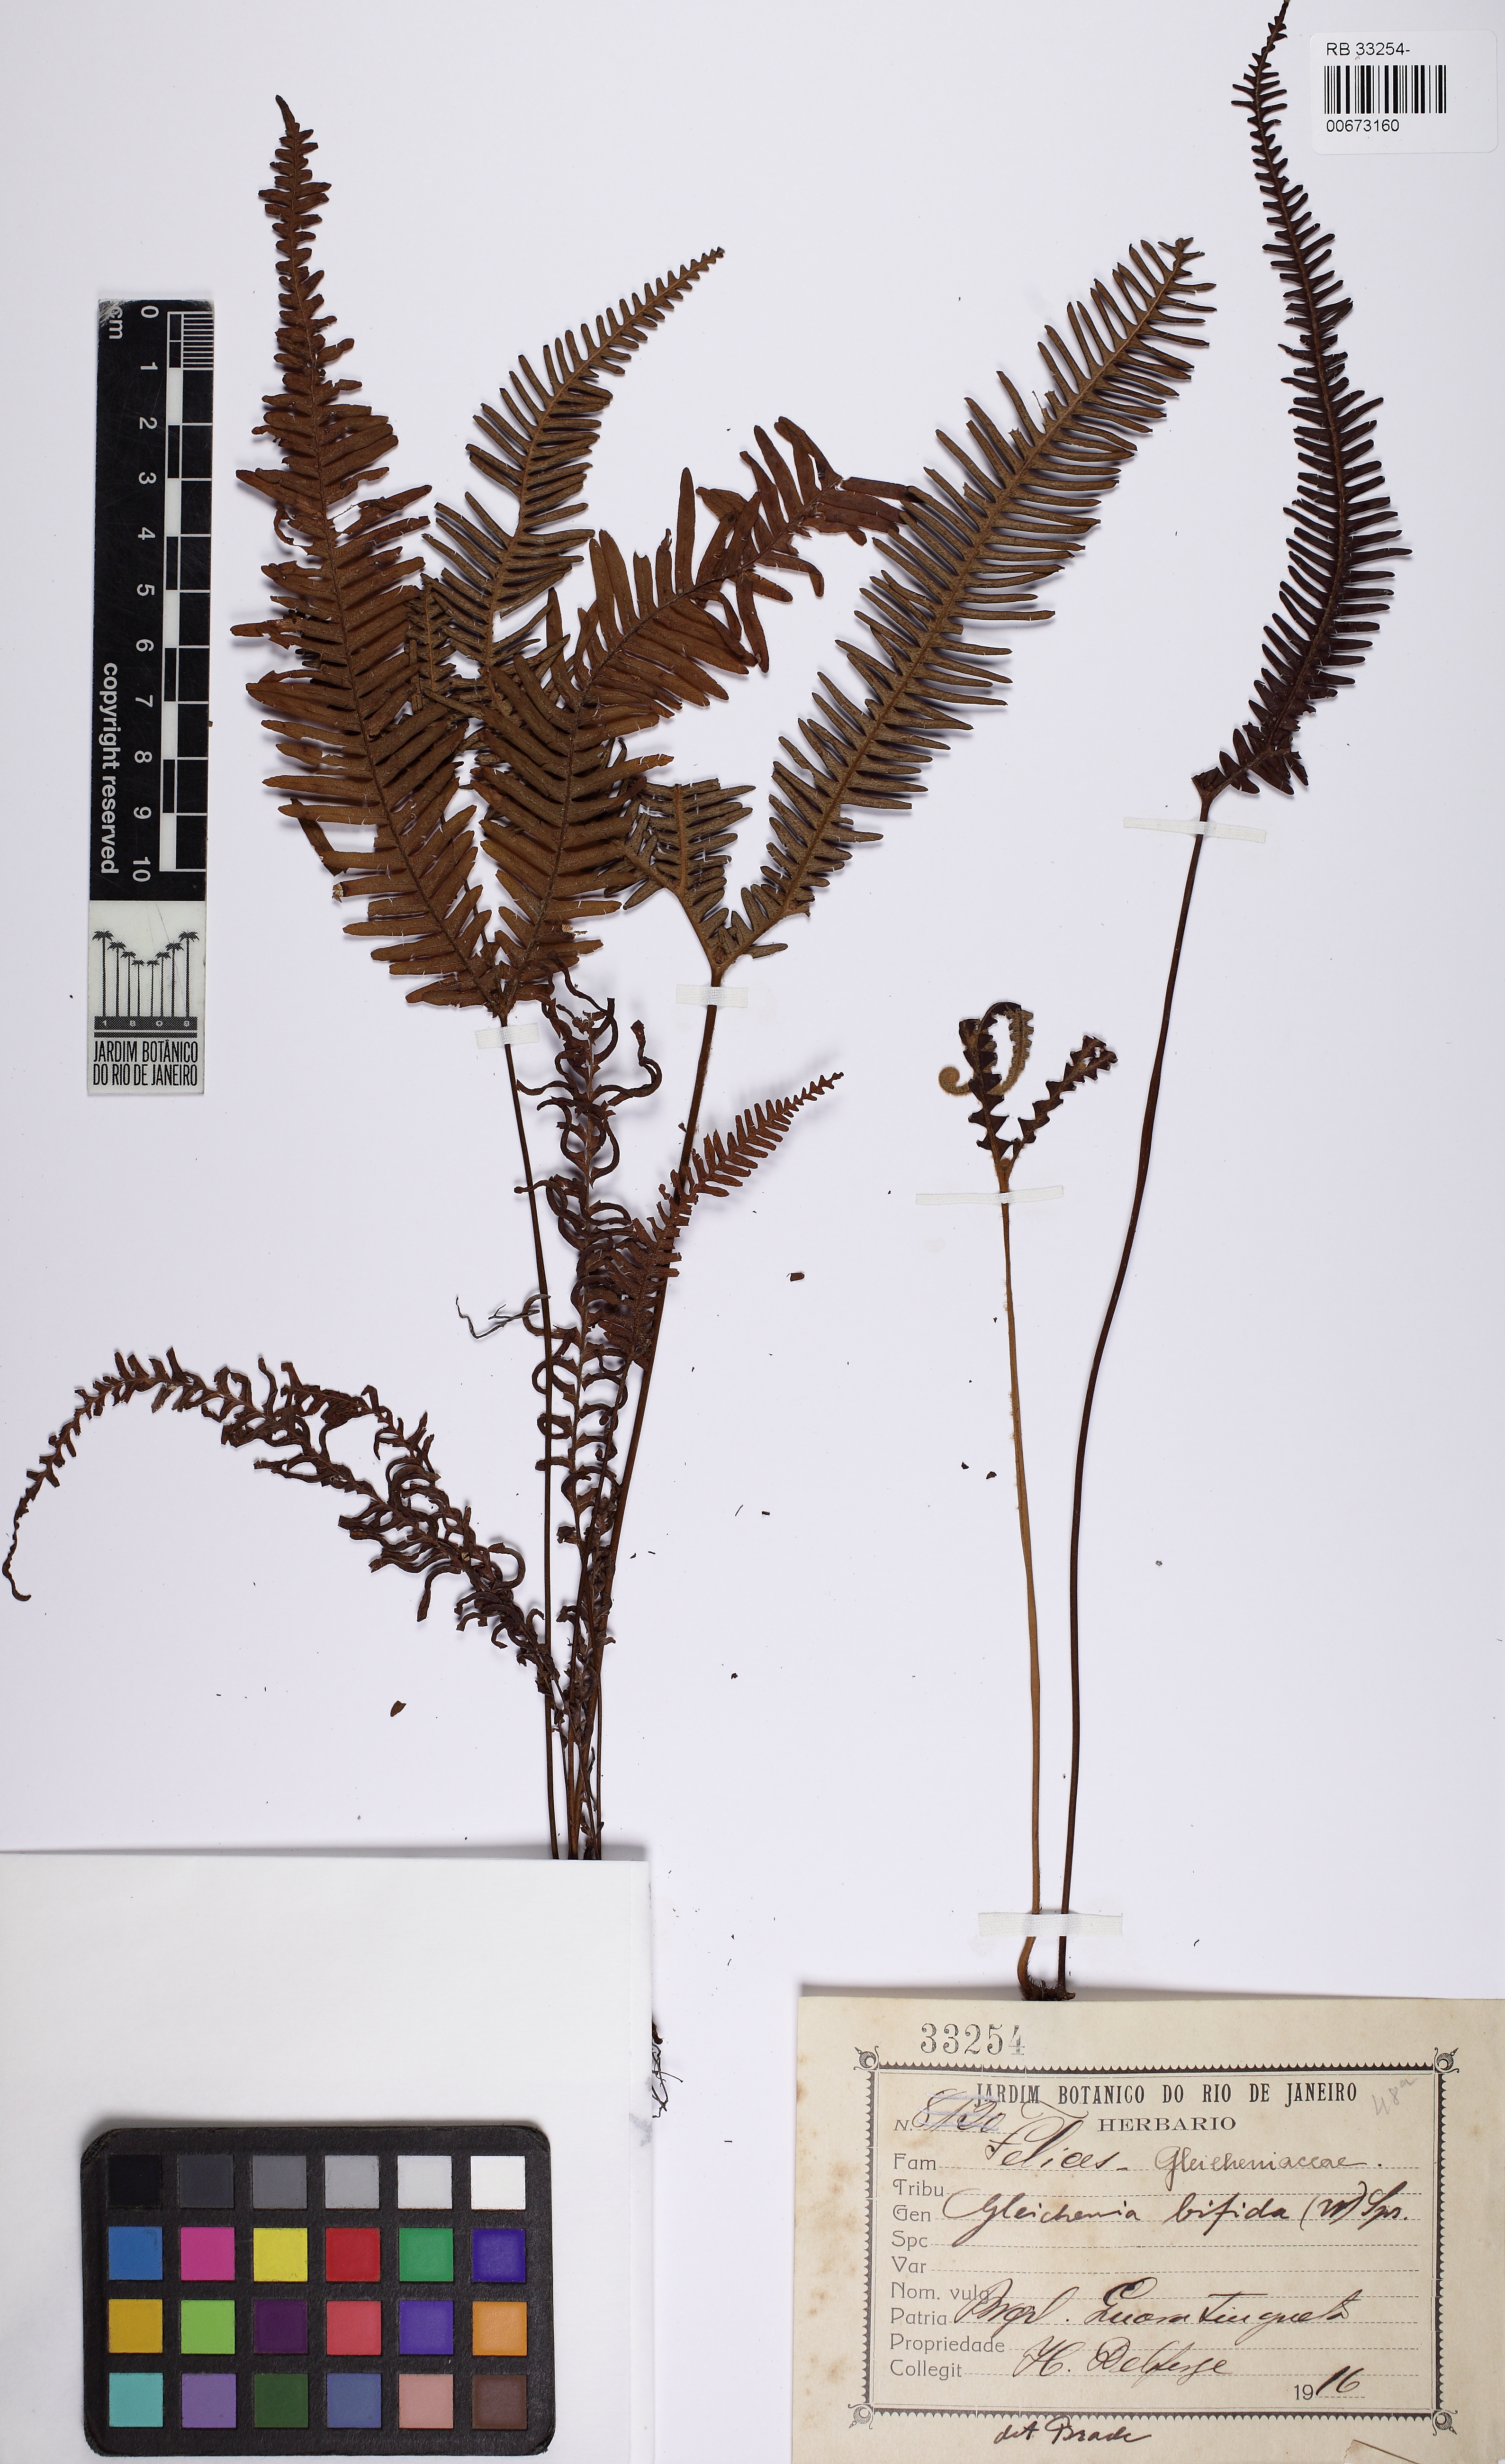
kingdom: Plantae
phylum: Tracheophyta
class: Polypodiopsida
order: Gleicheniales
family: Gleicheniaceae
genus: Sticherus
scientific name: Sticherus bifidus
